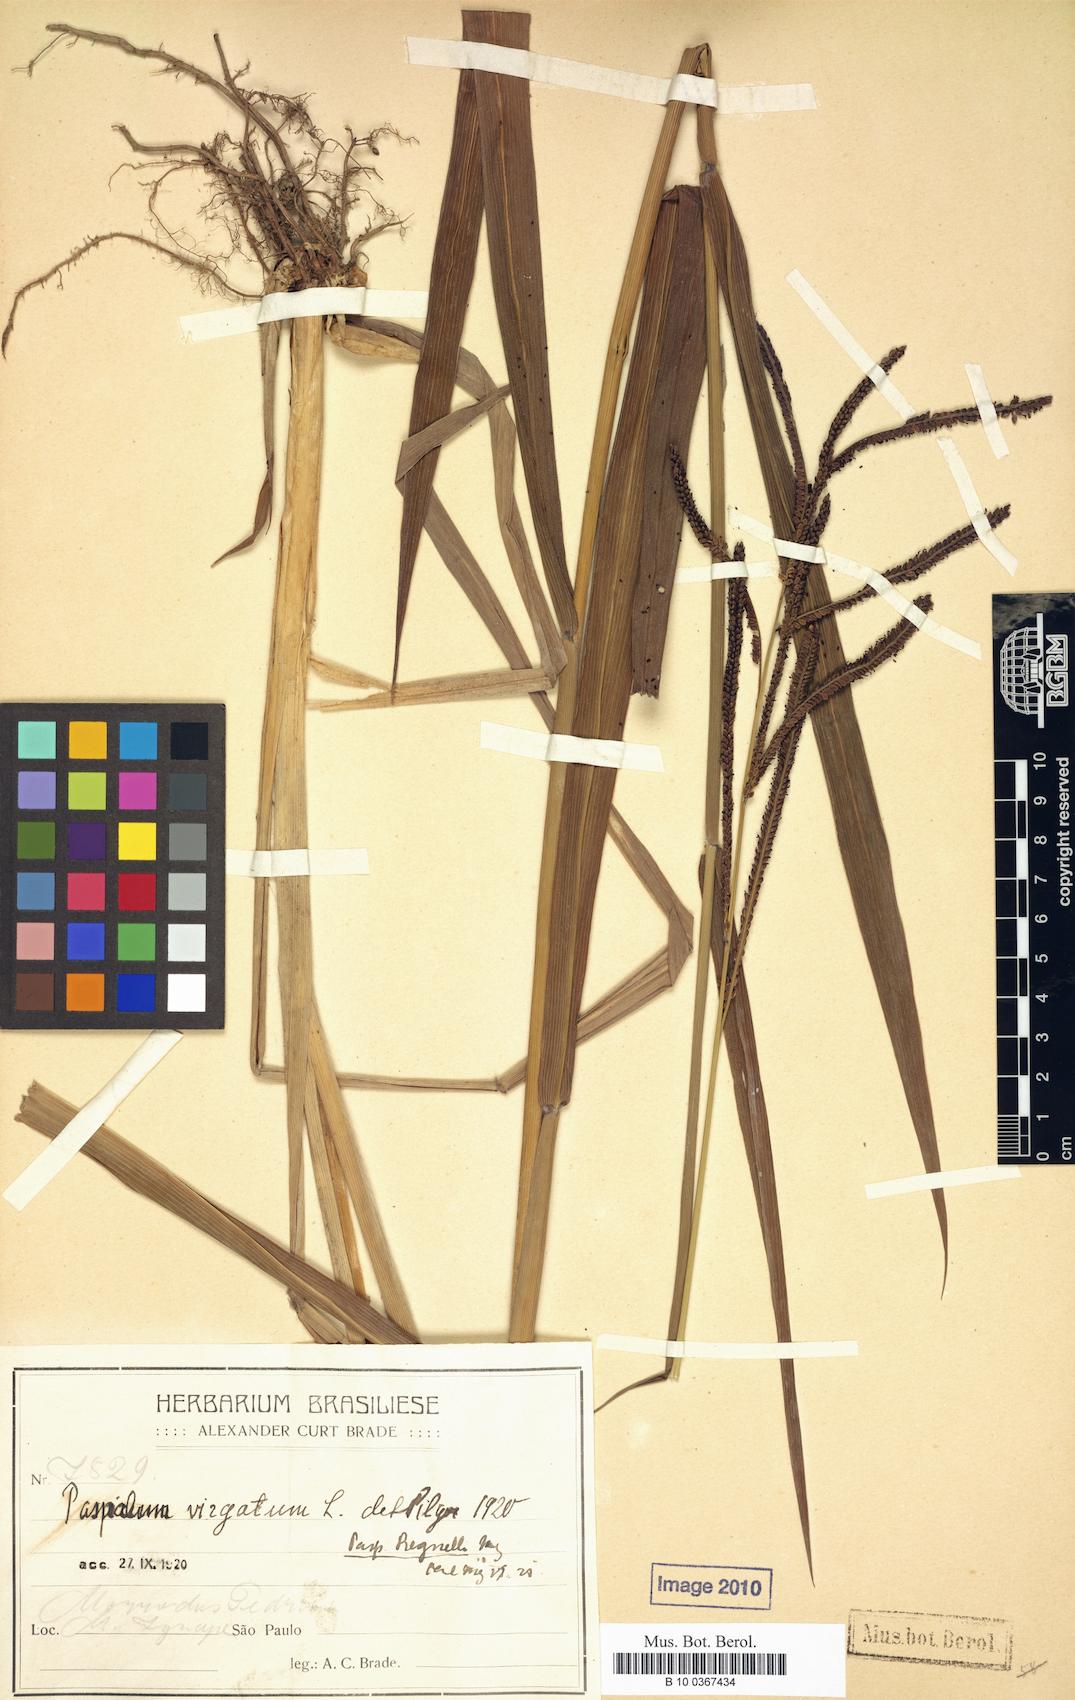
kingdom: Plantae
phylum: Tracheophyta
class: Liliopsida
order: Poales
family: Poaceae
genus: Paspalum
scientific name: Paspalum regnellii
